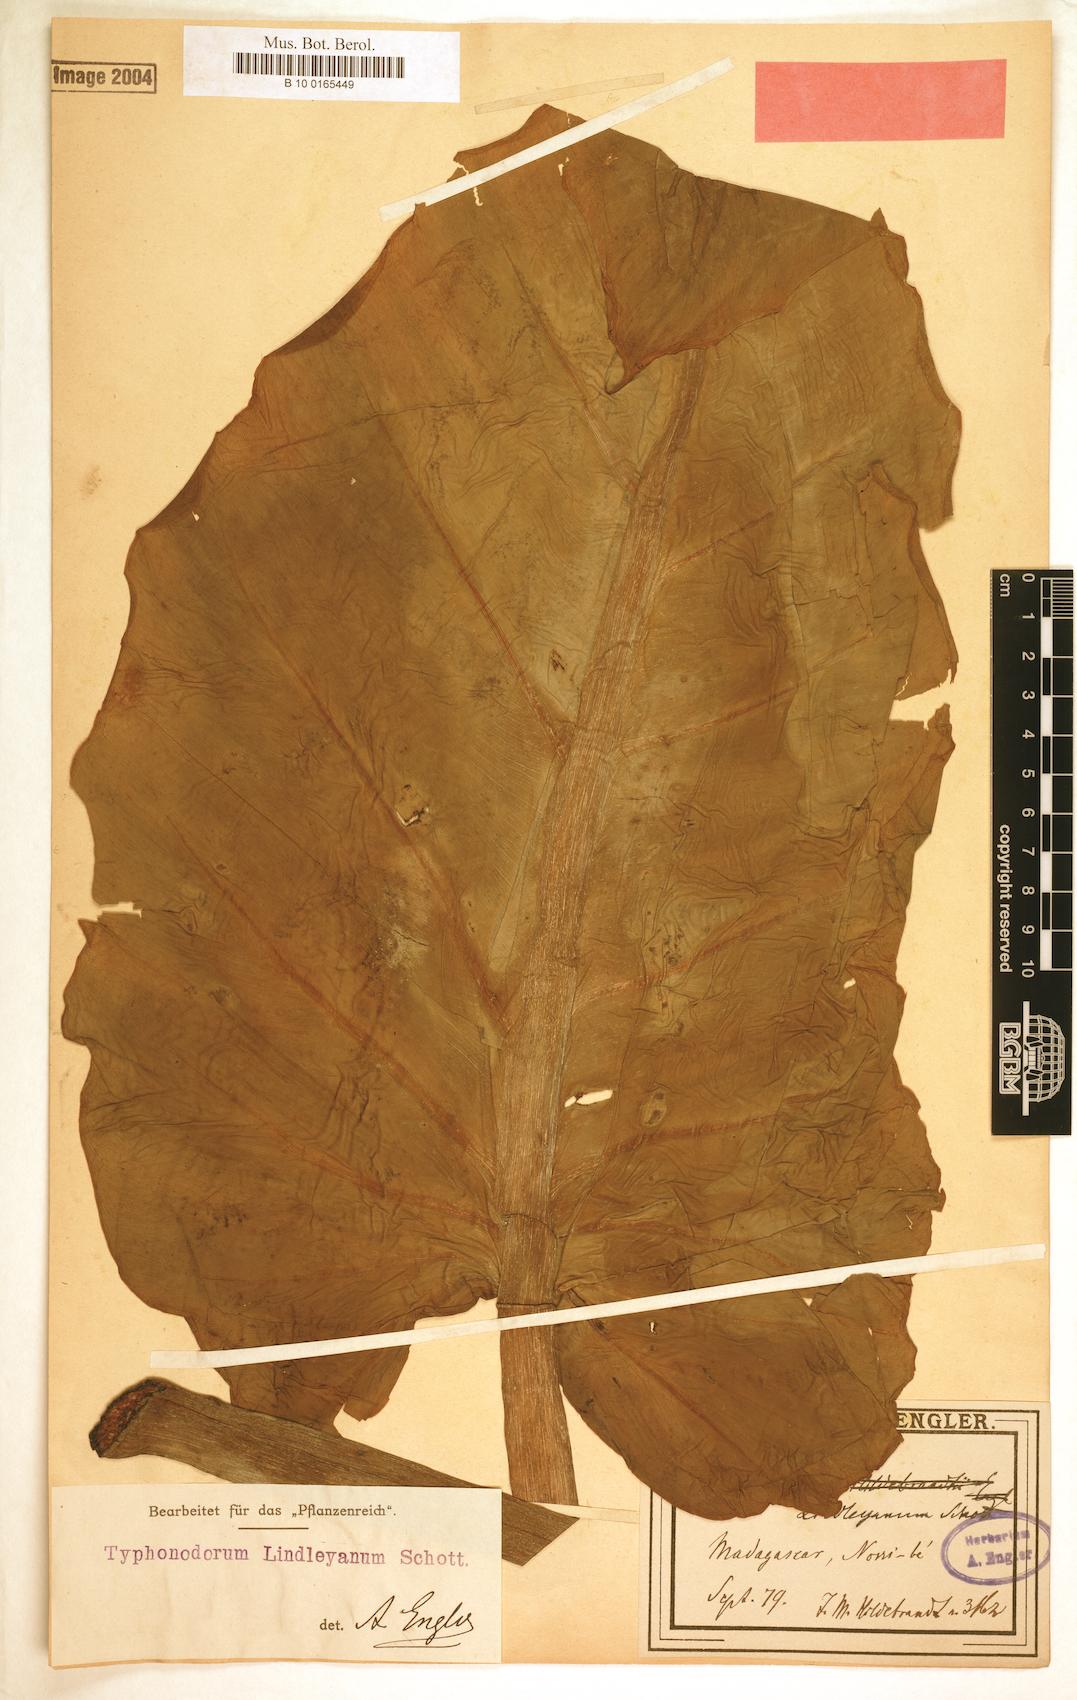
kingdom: Plantae
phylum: Tracheophyta
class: Liliopsida
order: Alismatales
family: Araceae
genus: Typhonodorum
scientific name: Typhonodorum lindleyanum
